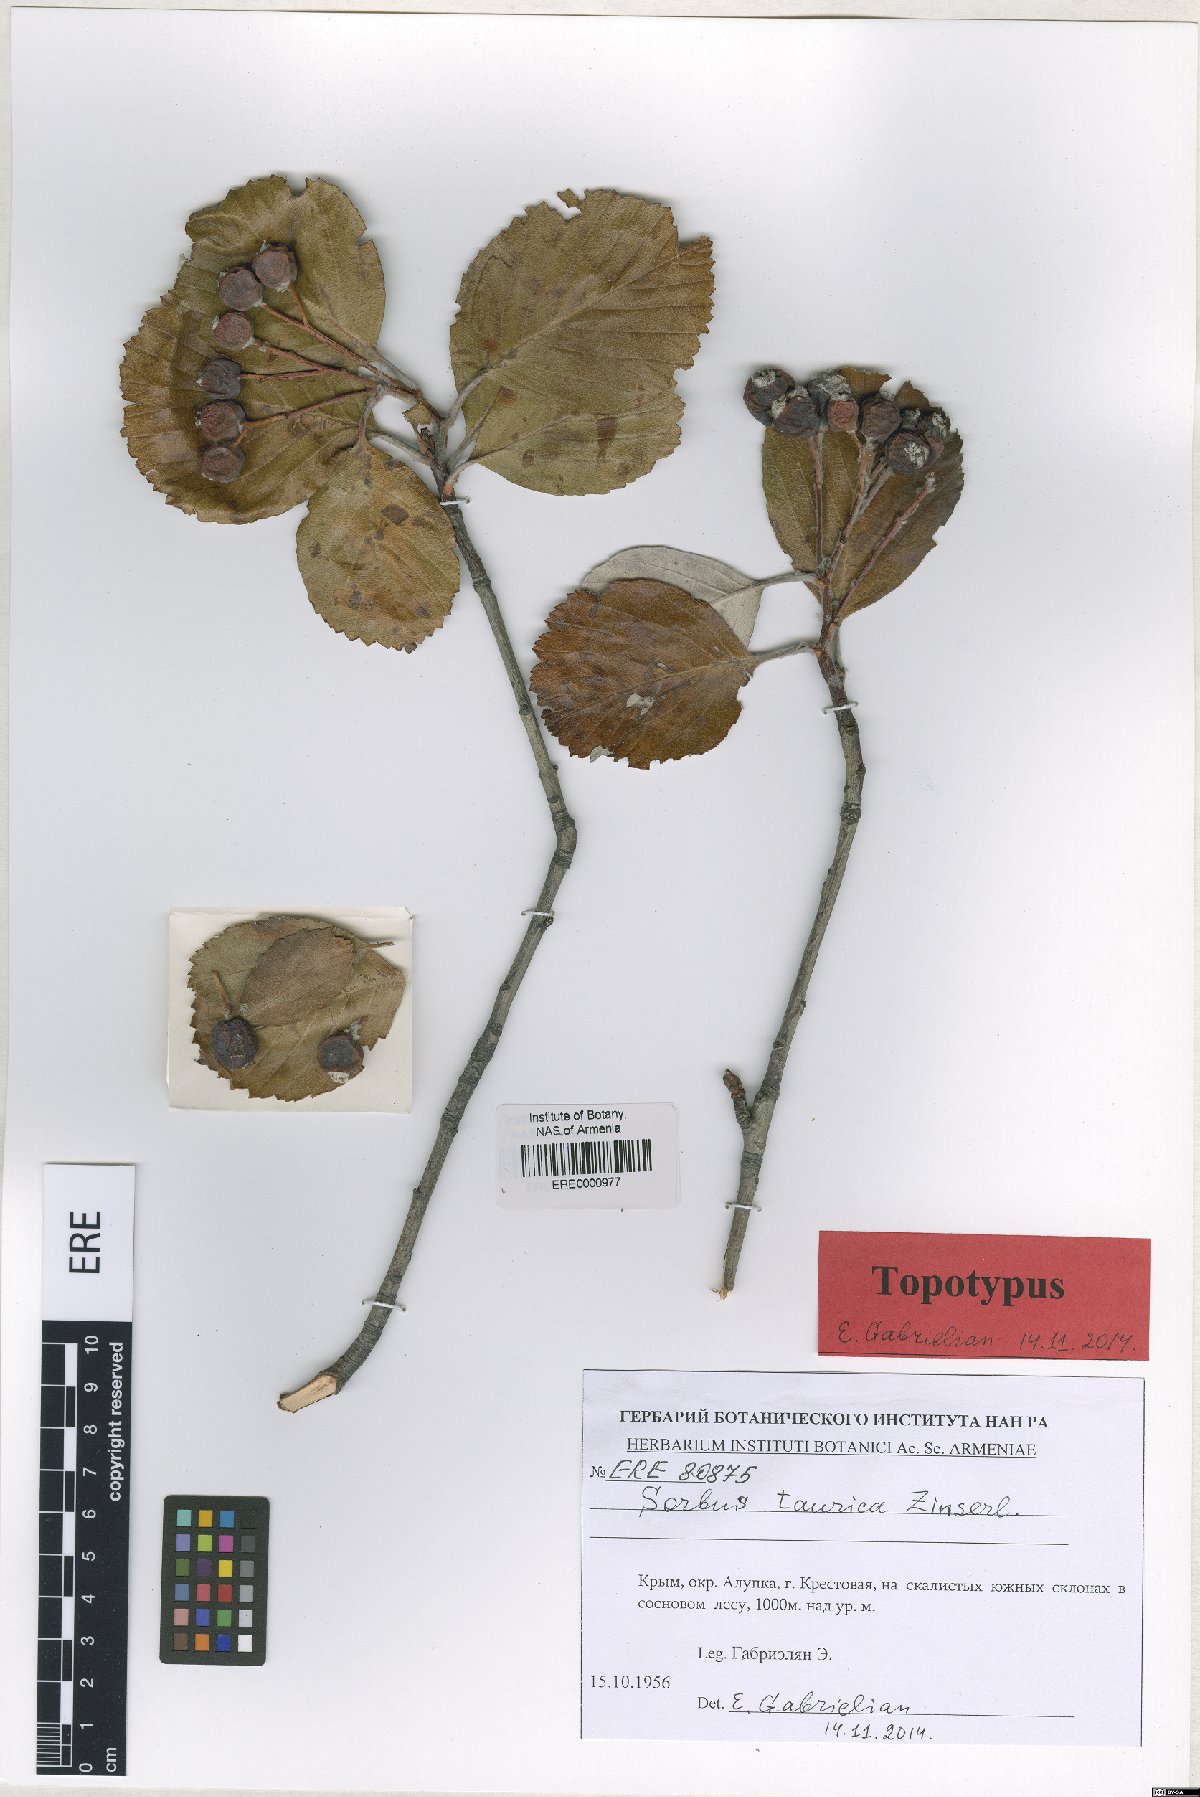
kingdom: Plantae
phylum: Tracheophyta
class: Magnoliopsida
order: Rosales
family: Rosaceae
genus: Aria
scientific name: Aria taurica
